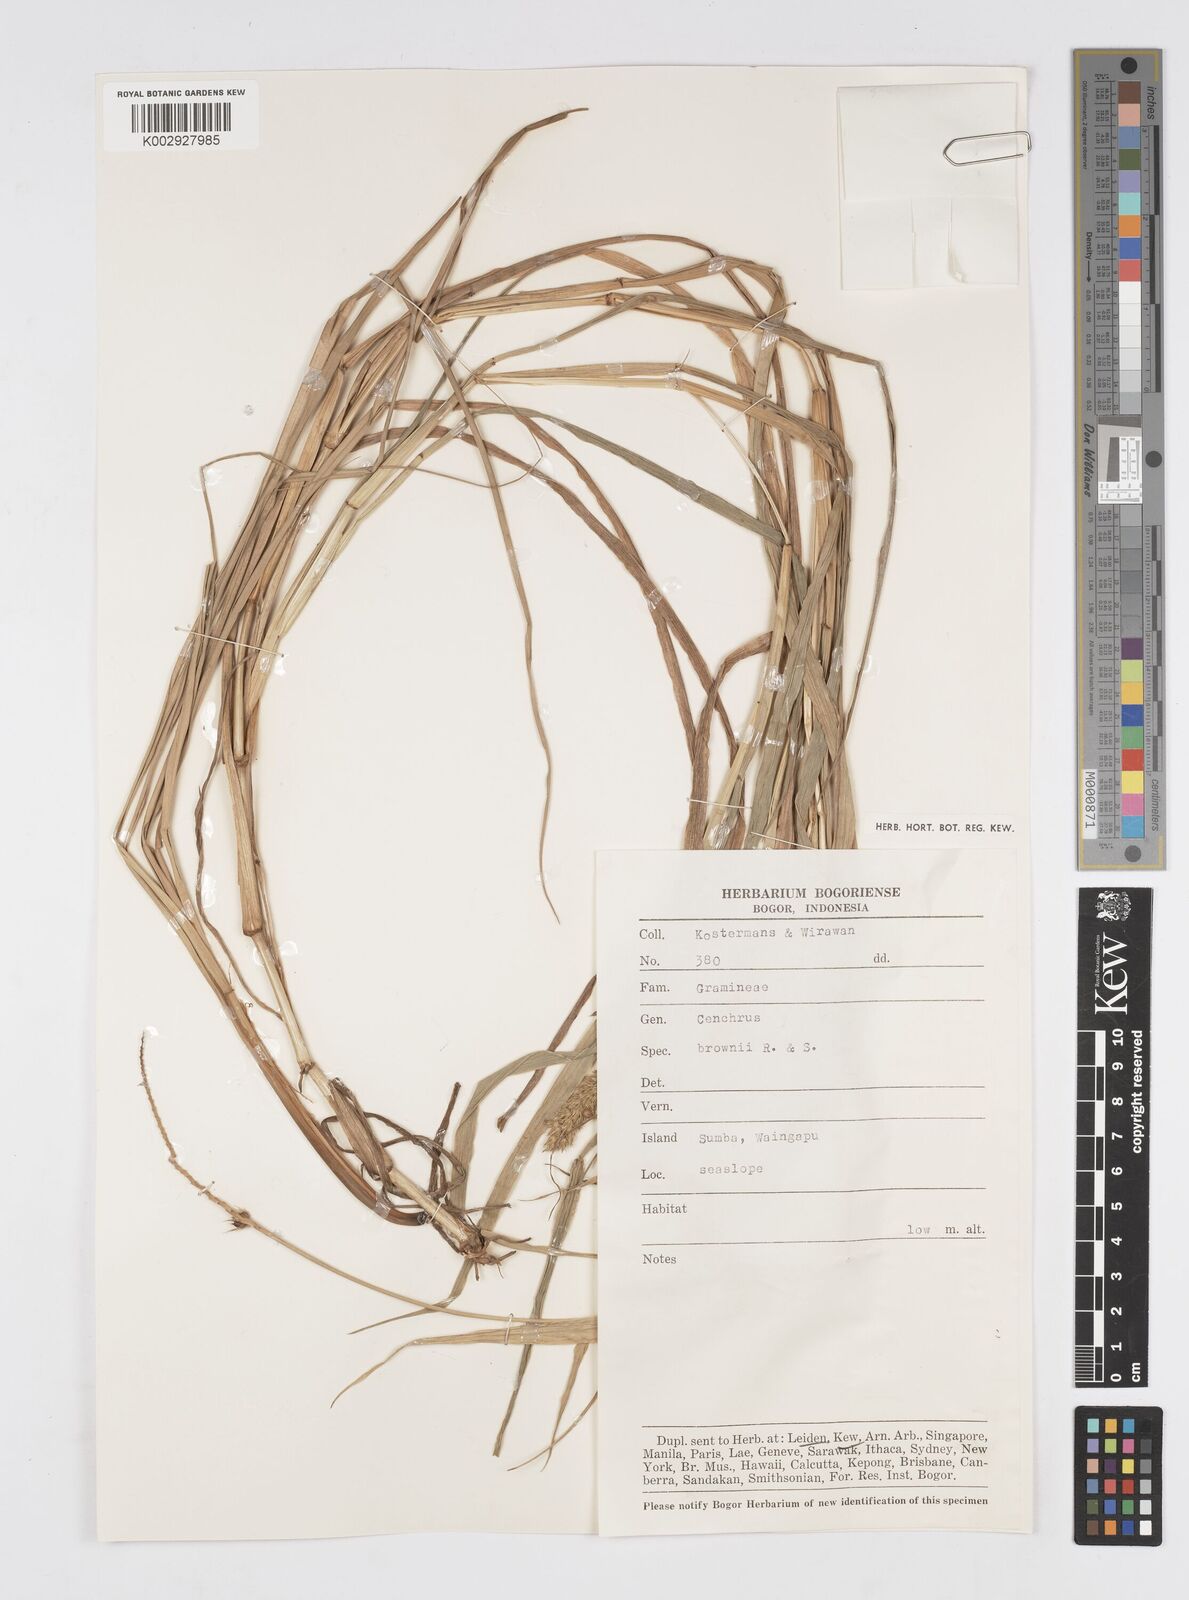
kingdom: Plantae
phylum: Tracheophyta
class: Liliopsida
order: Poales
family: Poaceae
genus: Cenchrus
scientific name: Cenchrus brownii
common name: Slim-bristle sandbur
